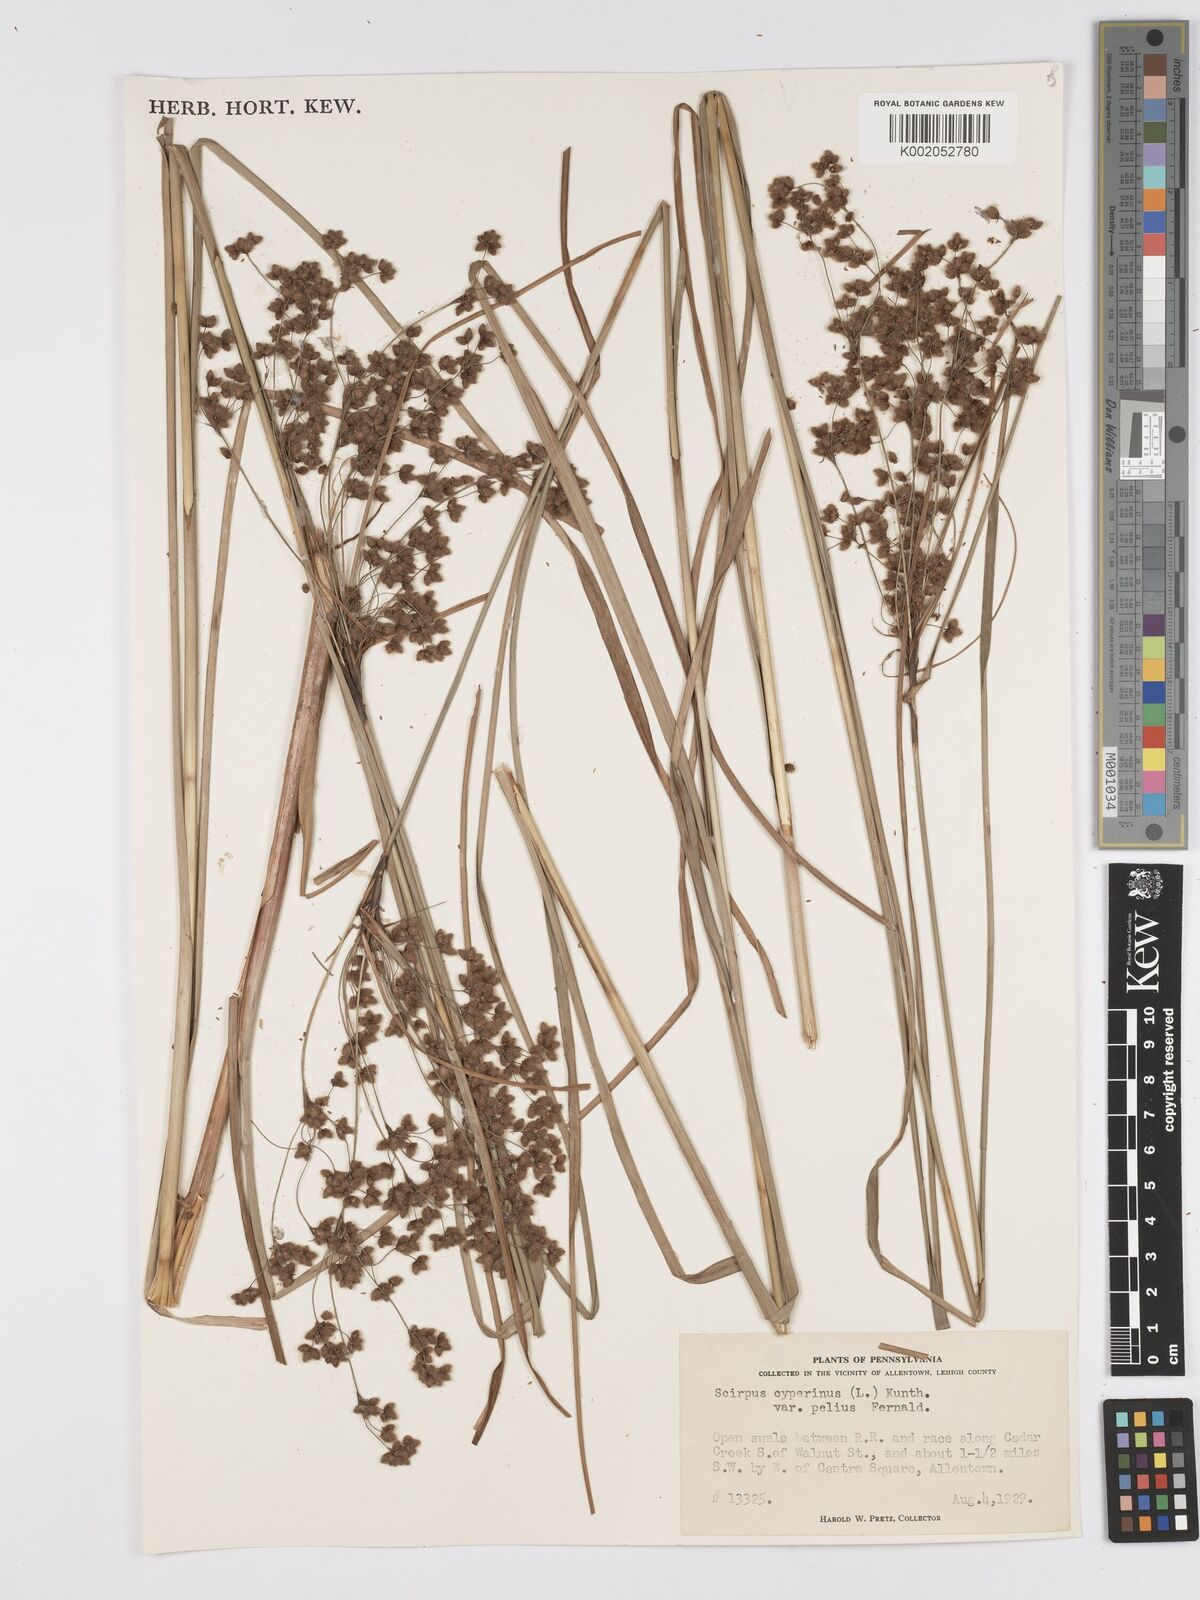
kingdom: Plantae
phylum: Tracheophyta
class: Liliopsida
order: Poales
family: Cyperaceae
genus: Scirpus
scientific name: Scirpus cyperinus
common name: Black-sheathed bulrush
